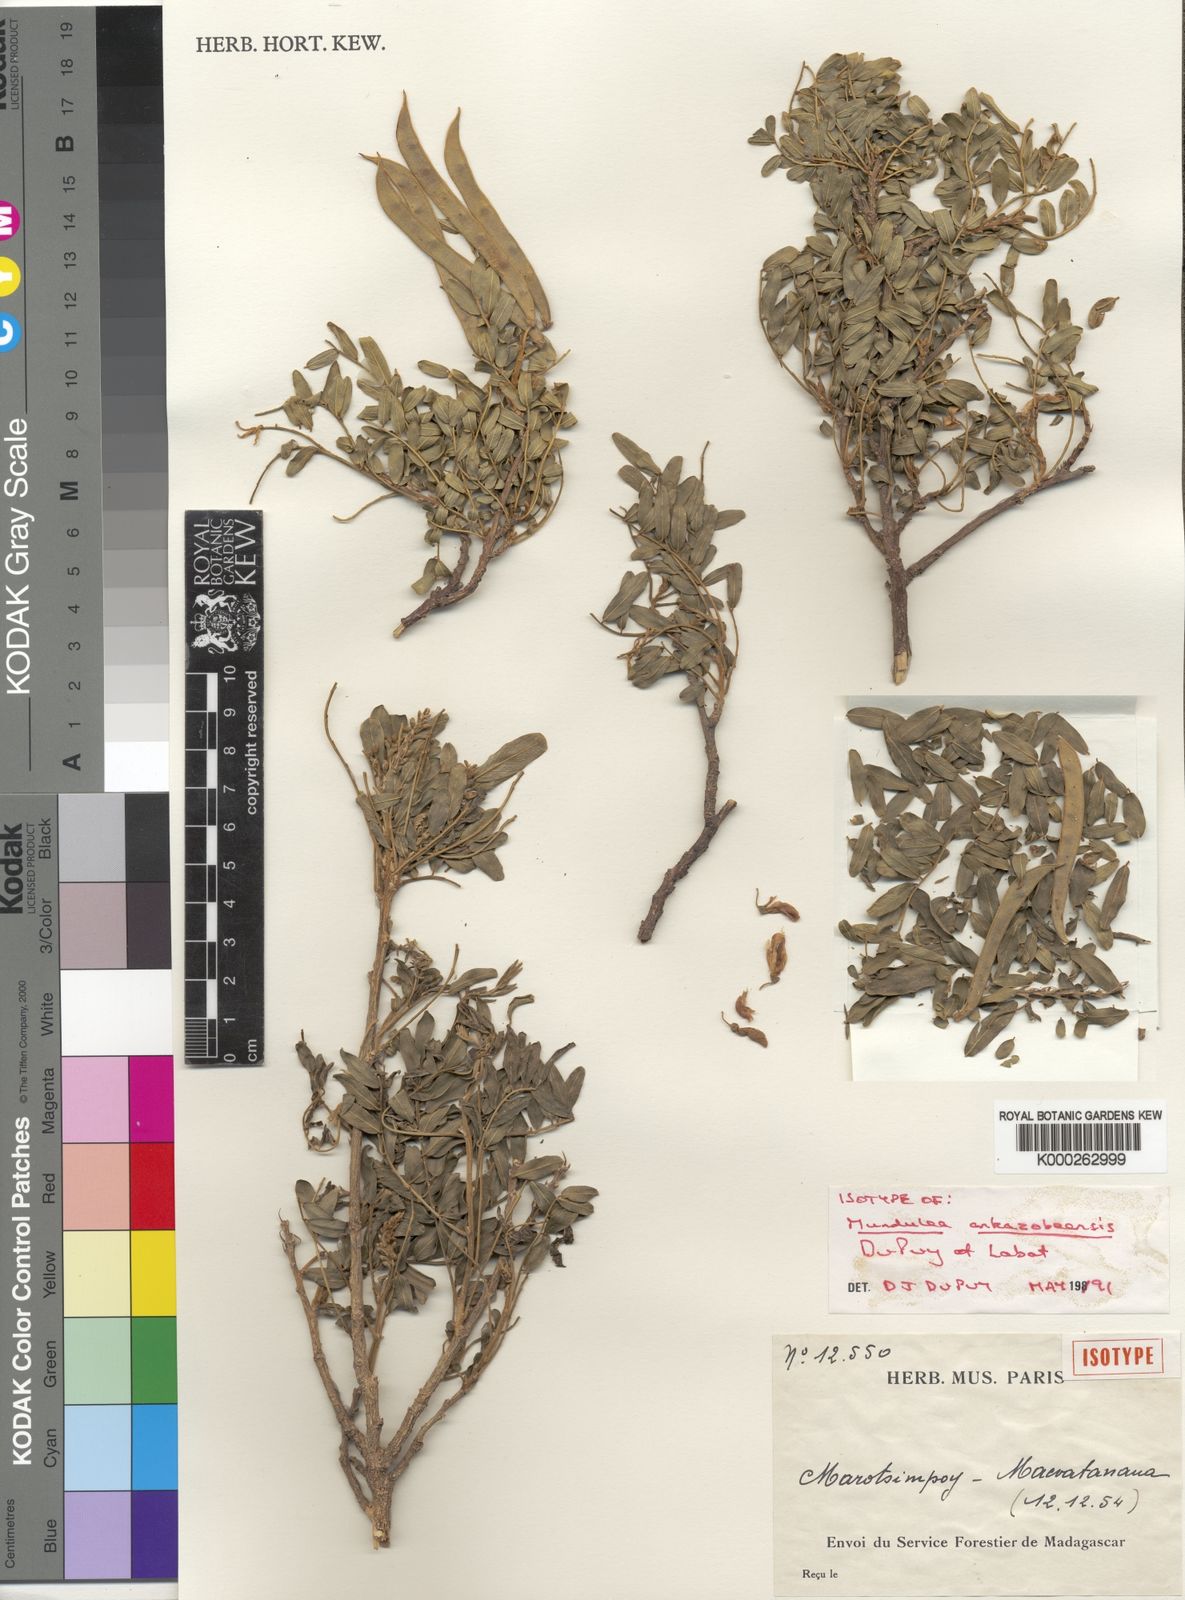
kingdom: Plantae
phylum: Tracheophyta
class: Magnoliopsida
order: Fabales
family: Fabaceae
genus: Mundulea
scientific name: Mundulea
